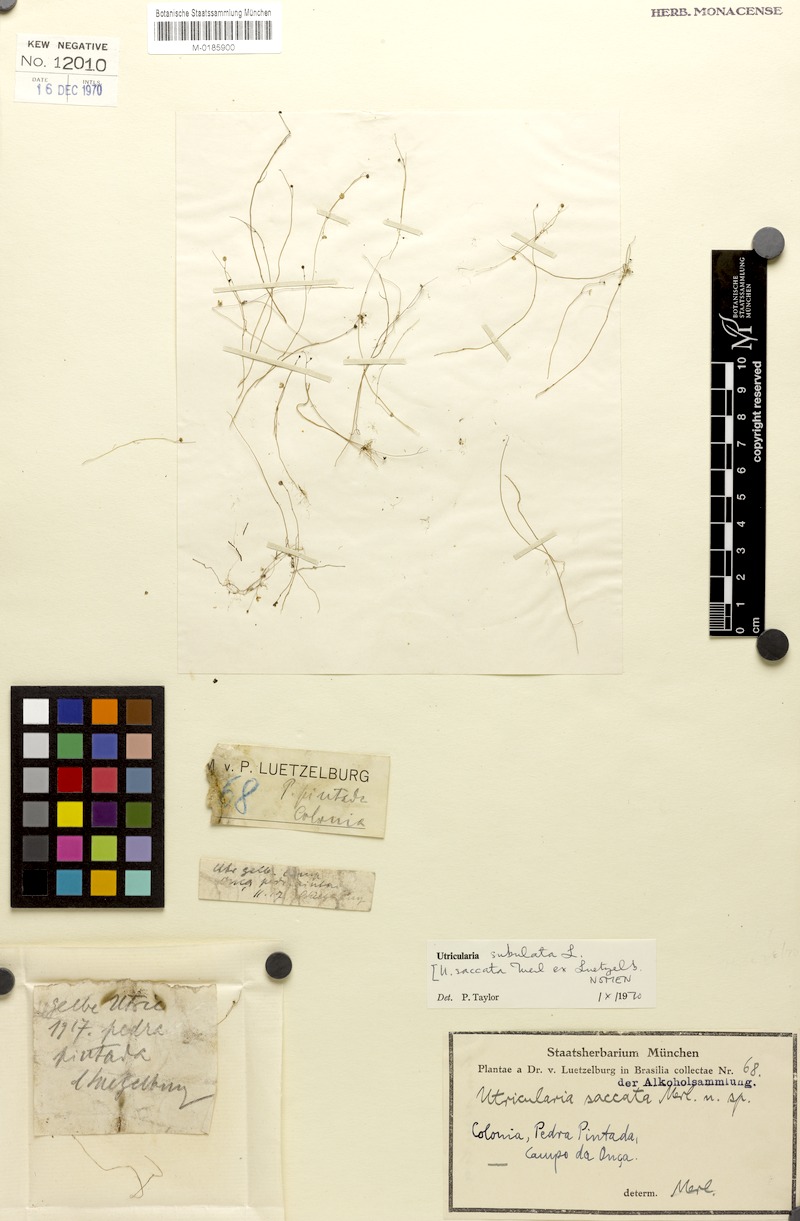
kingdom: Plantae
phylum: Tracheophyta
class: Magnoliopsida
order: Lamiales
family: Lentibulariaceae
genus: Utricularia
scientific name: Utricularia subulata
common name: Tiny bladderwort
